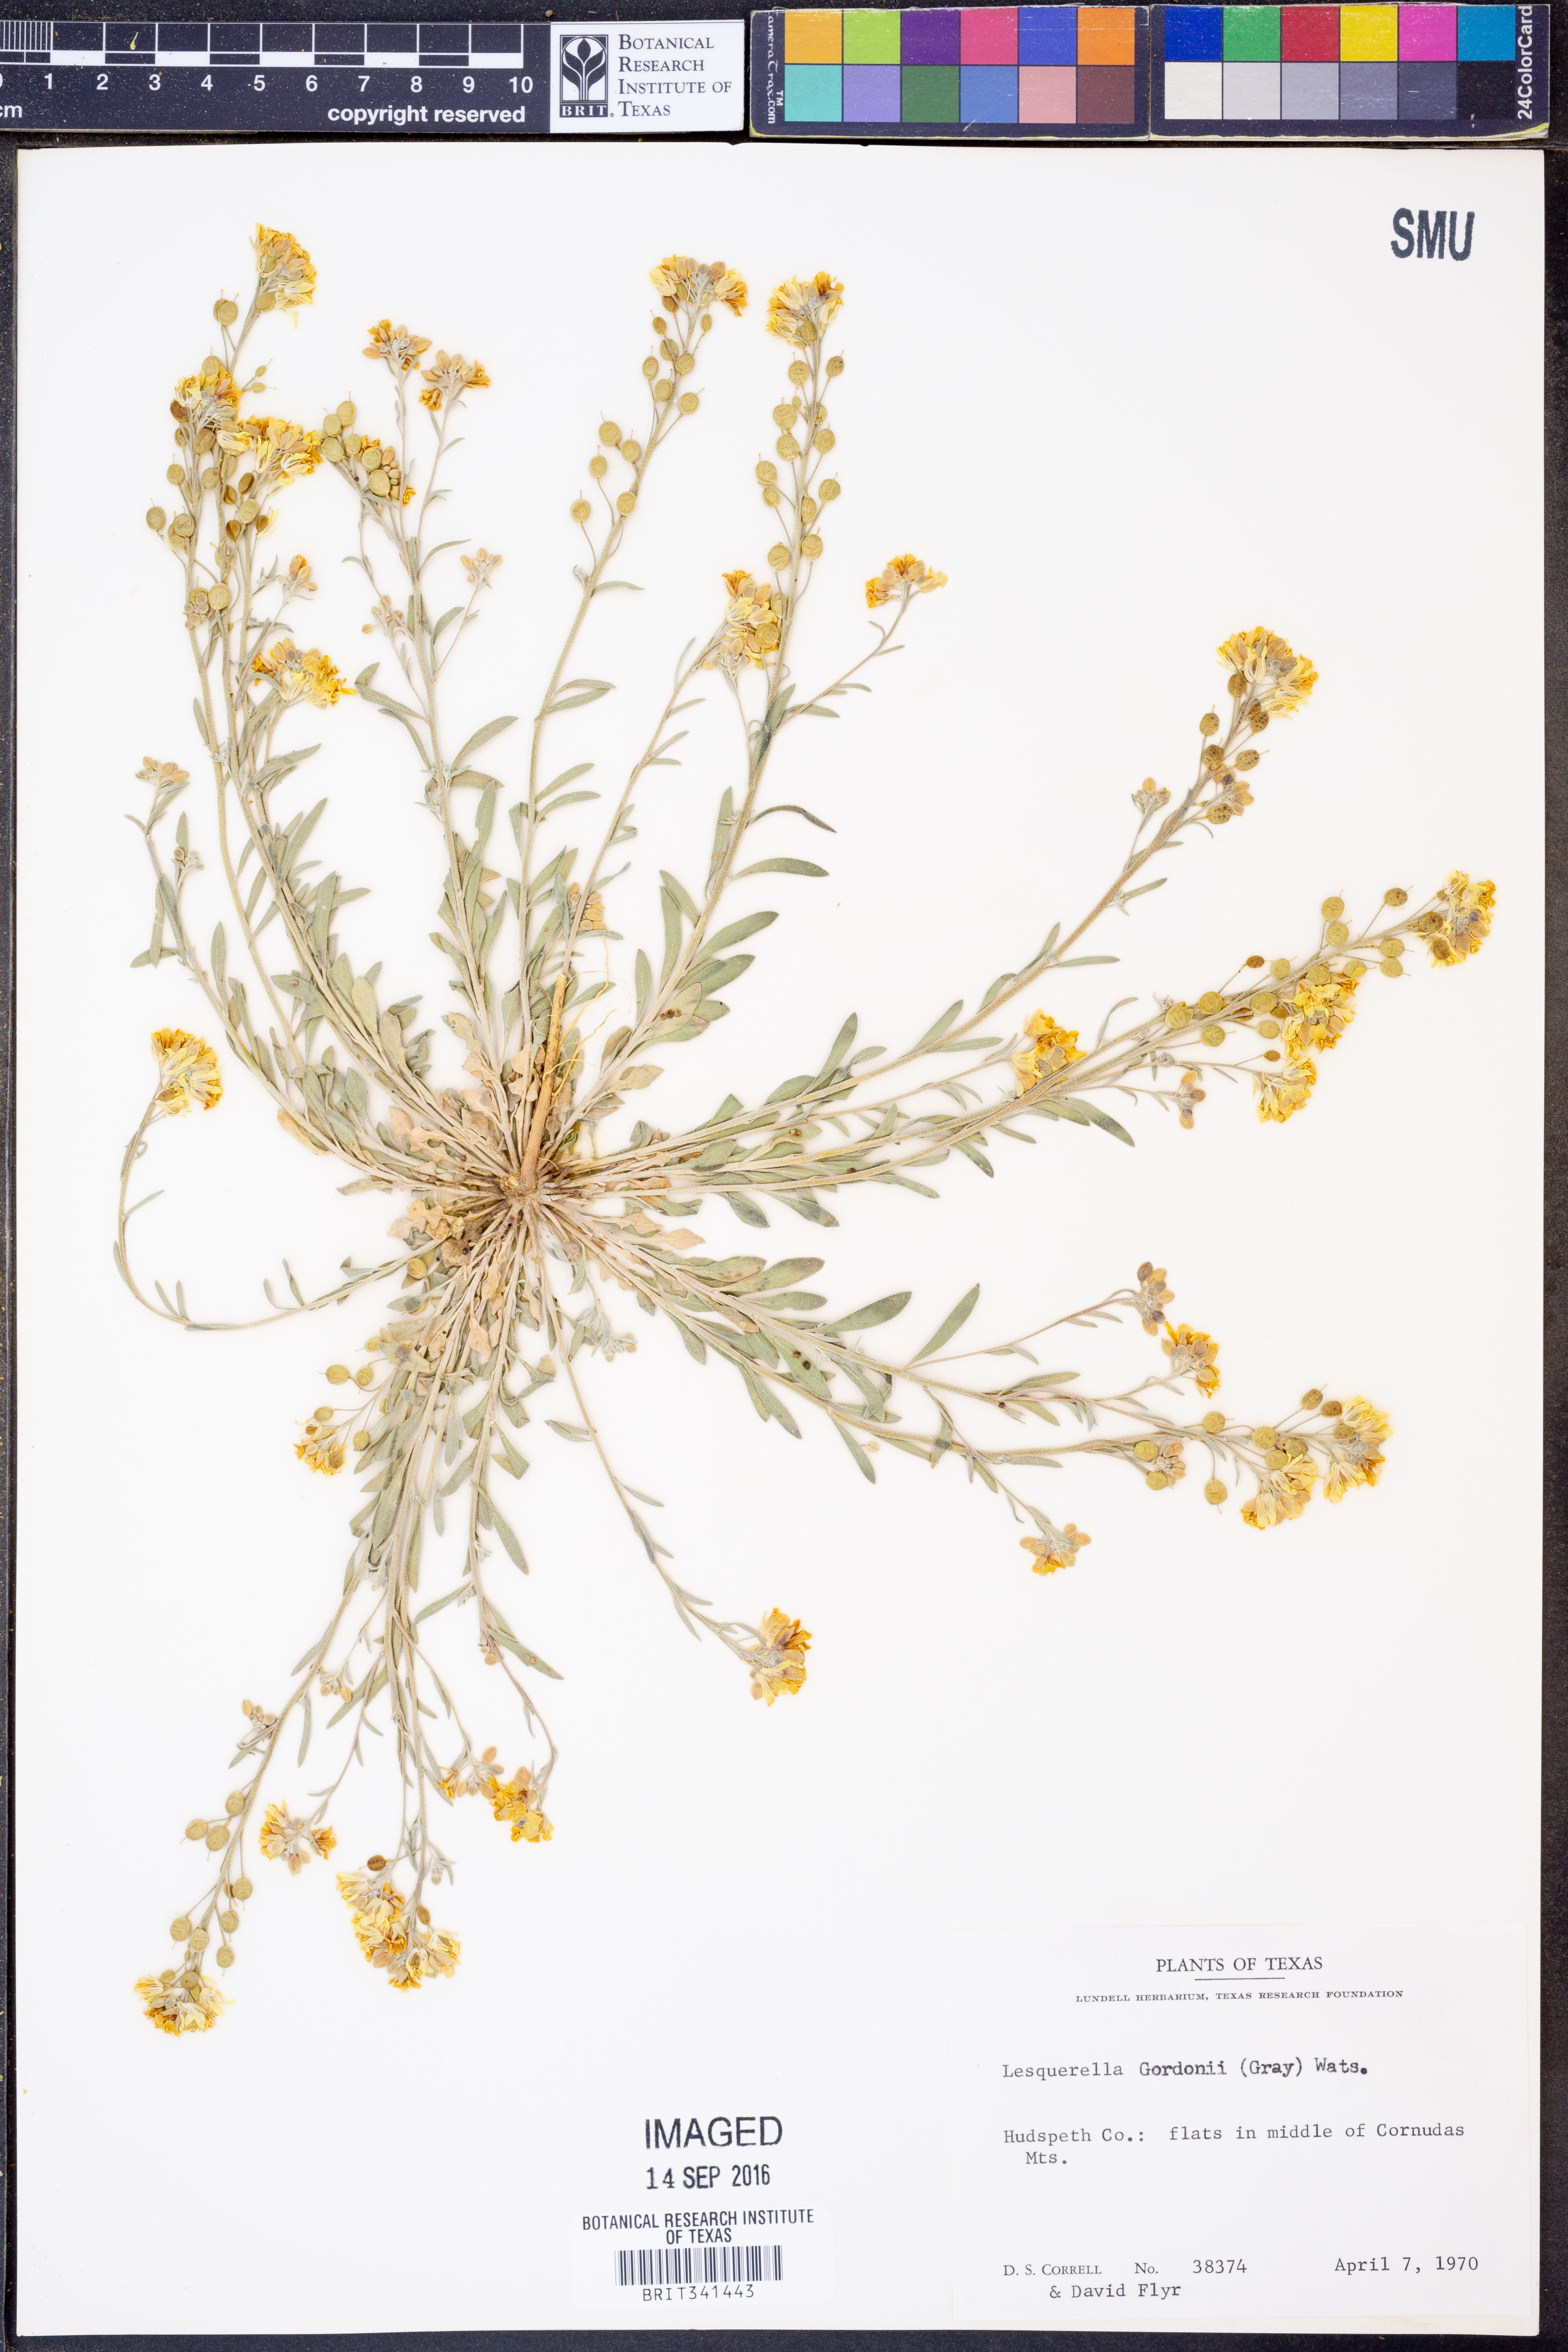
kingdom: Plantae
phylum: Tracheophyta
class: Magnoliopsida
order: Brassicales
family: Brassicaceae
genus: Physaria
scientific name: Physaria gordonii
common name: Gordon's bladderpod
